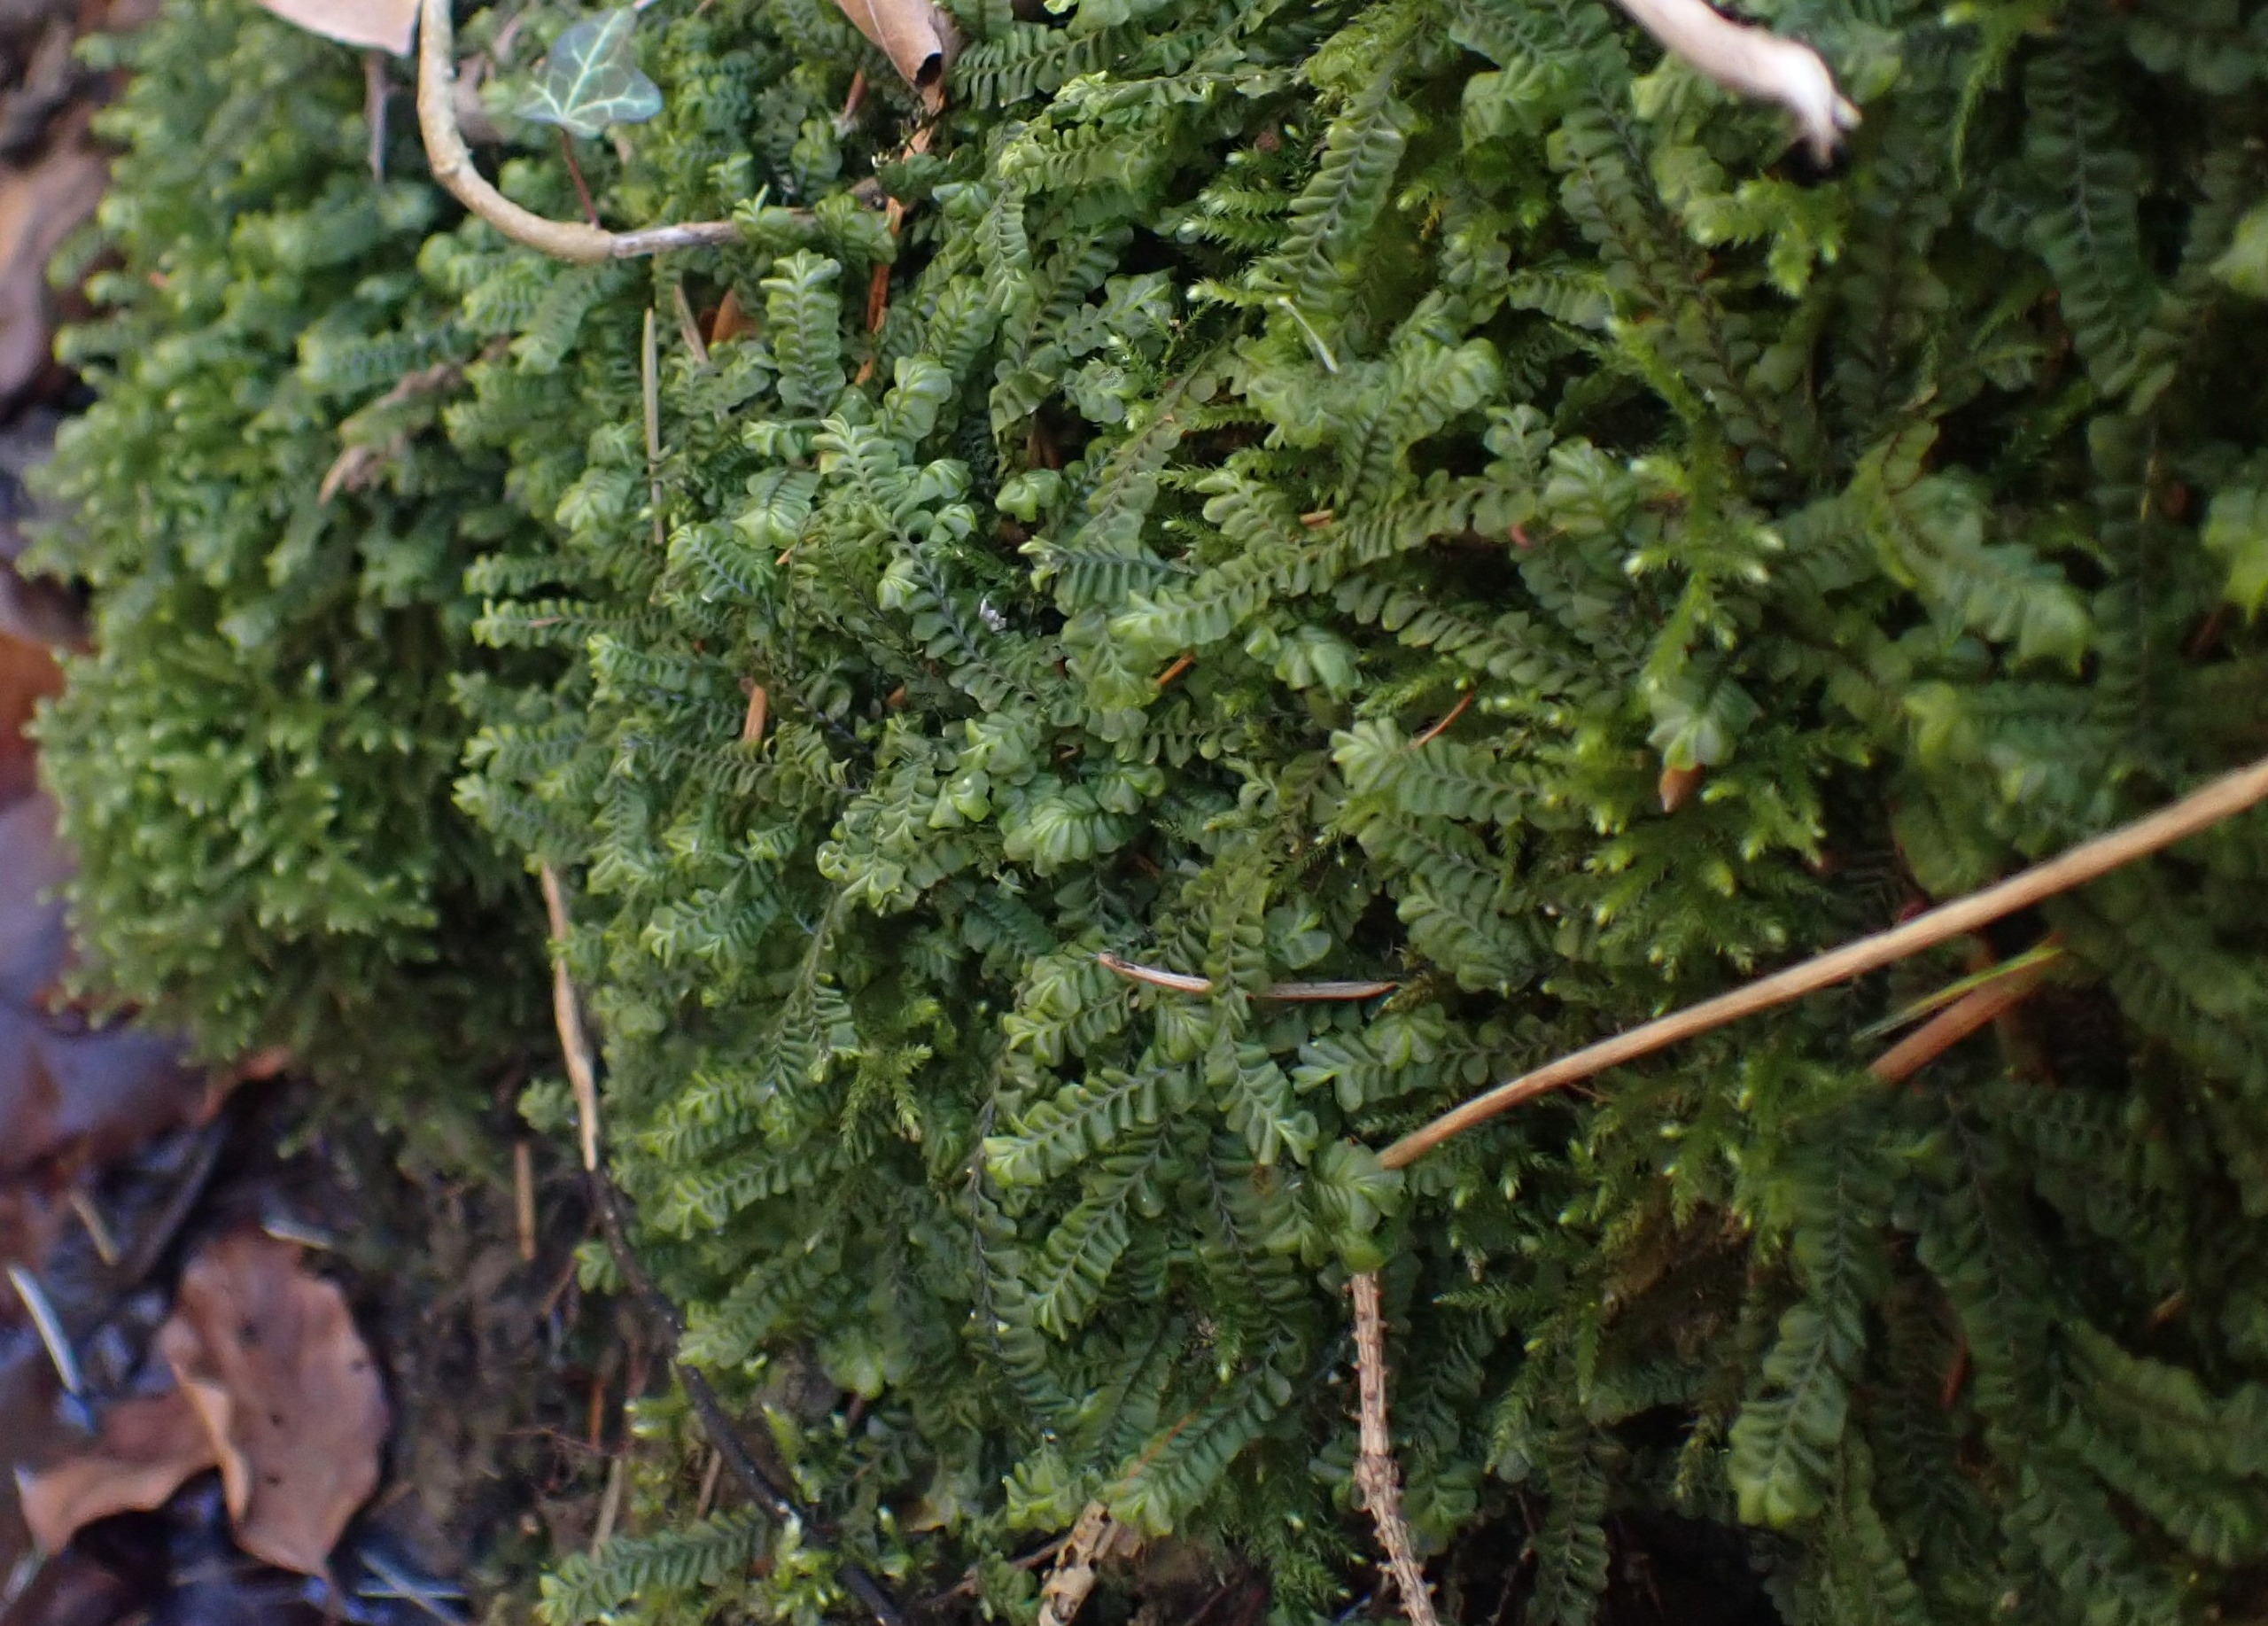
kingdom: Plantae
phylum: Marchantiophyta
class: Jungermanniopsida
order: Jungermanniales
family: Plagiochilaceae
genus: Plagiochila
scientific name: Plagiochila asplenioides
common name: Radeløv-hindeblad
